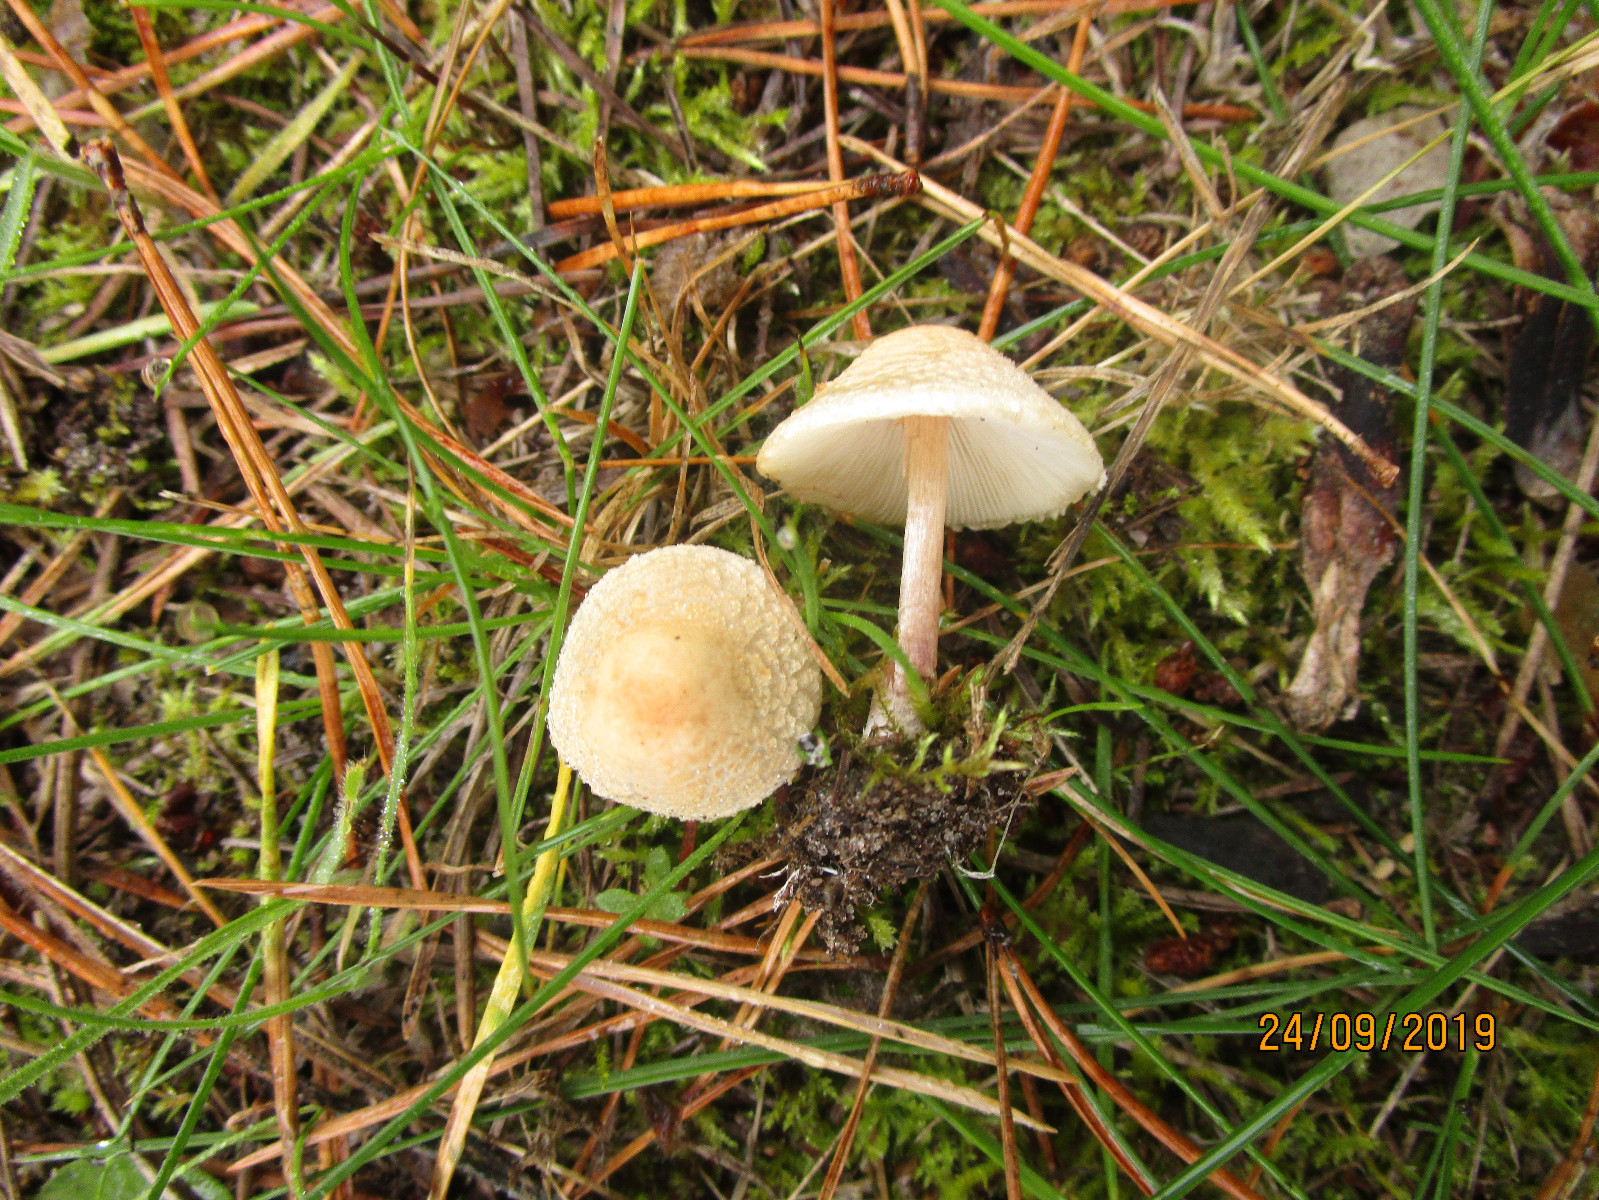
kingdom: Fungi
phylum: Basidiomycota
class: Agaricomycetes
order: Agaricales
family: Agaricaceae
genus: Lepiota
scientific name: Lepiota
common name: parasolhat
